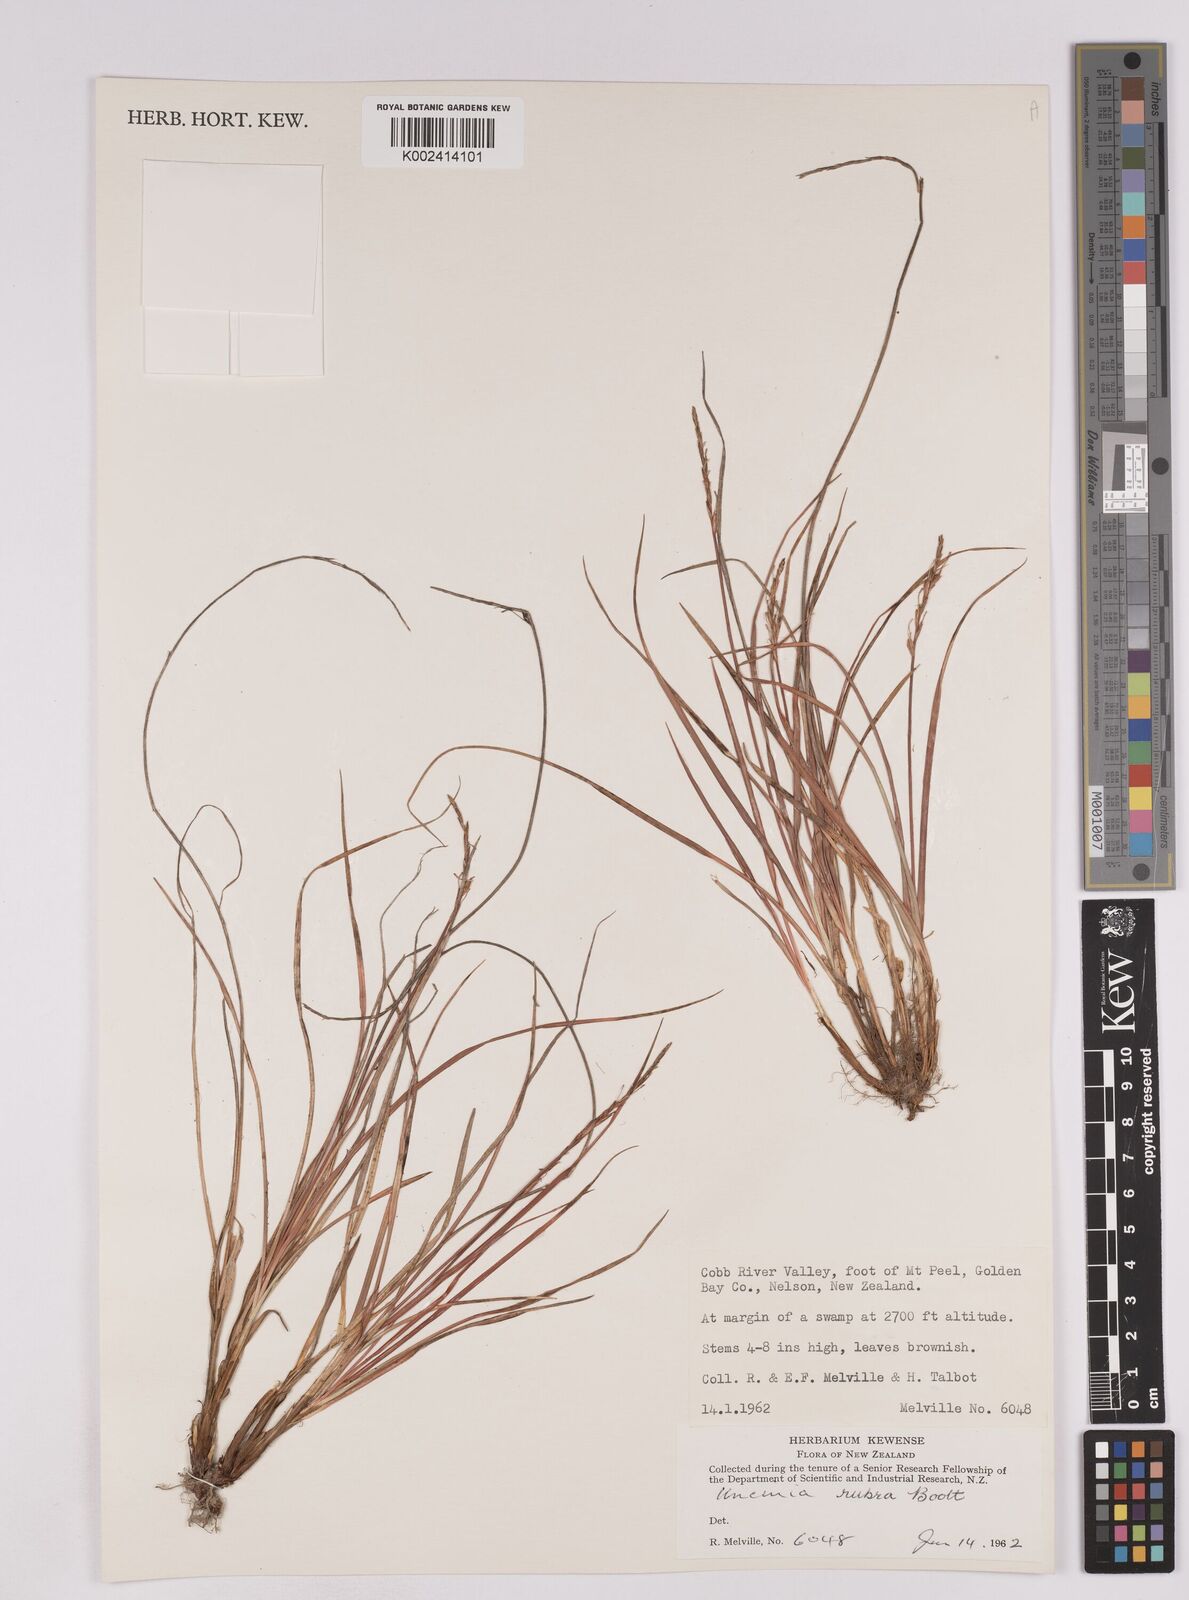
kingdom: Plantae
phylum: Tracheophyta
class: Liliopsida
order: Poales
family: Cyperaceae
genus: Carex
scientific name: Carex punicea
